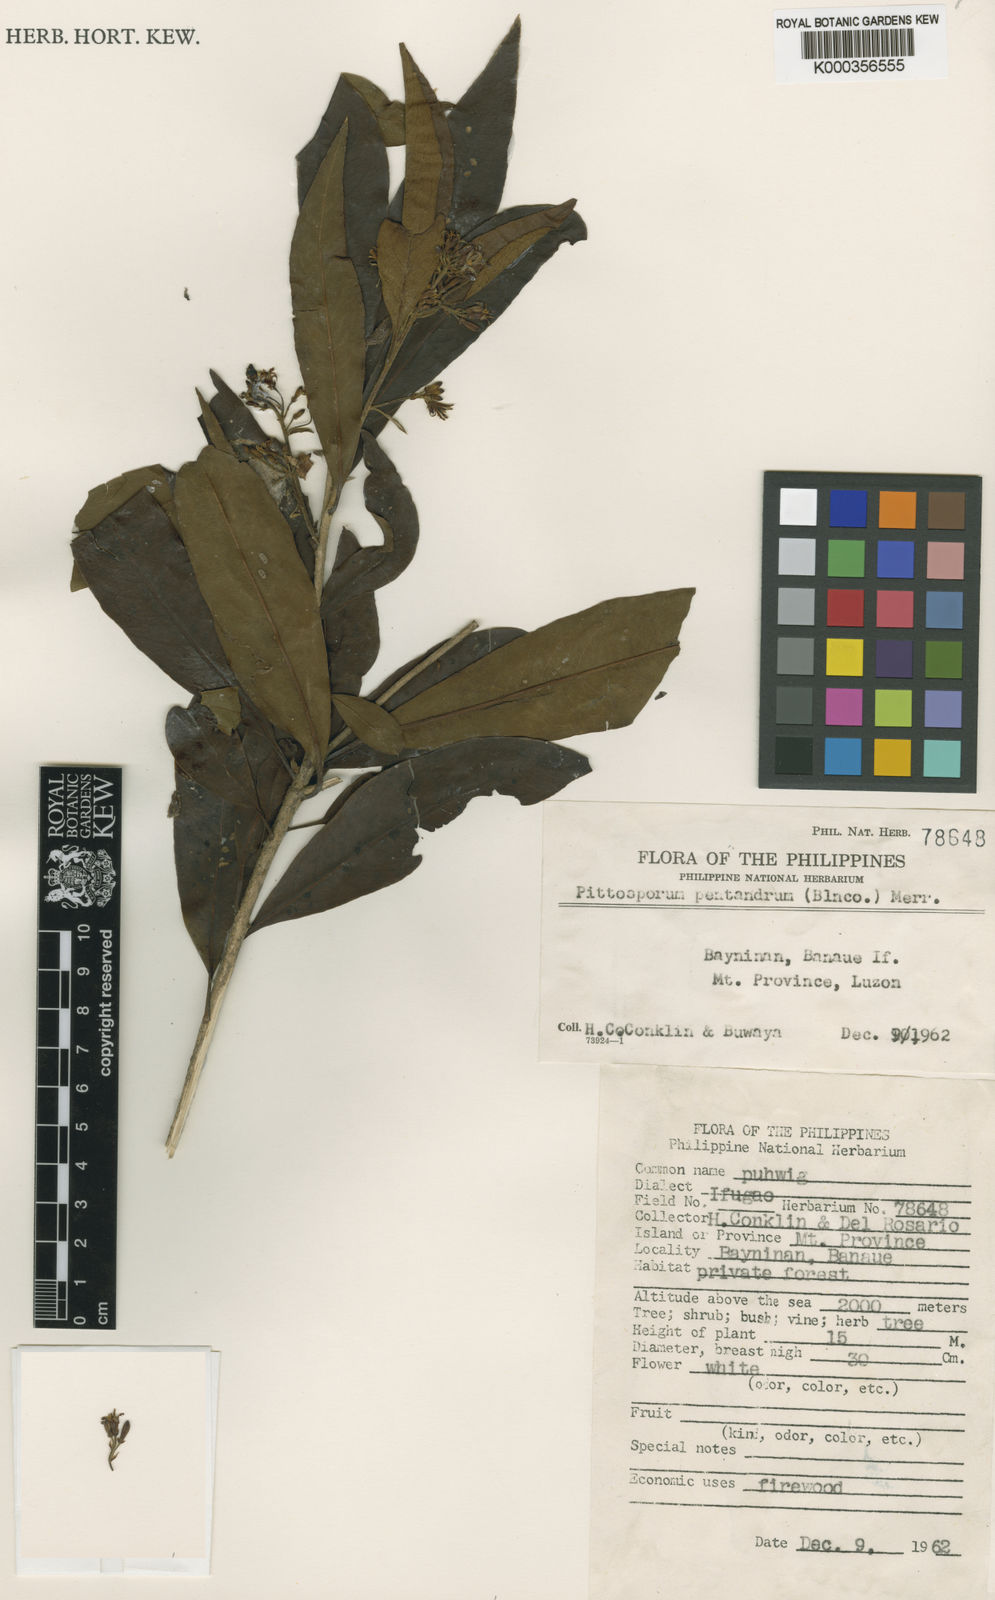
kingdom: Plantae
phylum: Tracheophyta
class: Magnoliopsida
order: Apiales
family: Pittosporaceae
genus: Pittosporum
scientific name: Pittosporum pentandrum
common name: Taiwanese cheesewood
